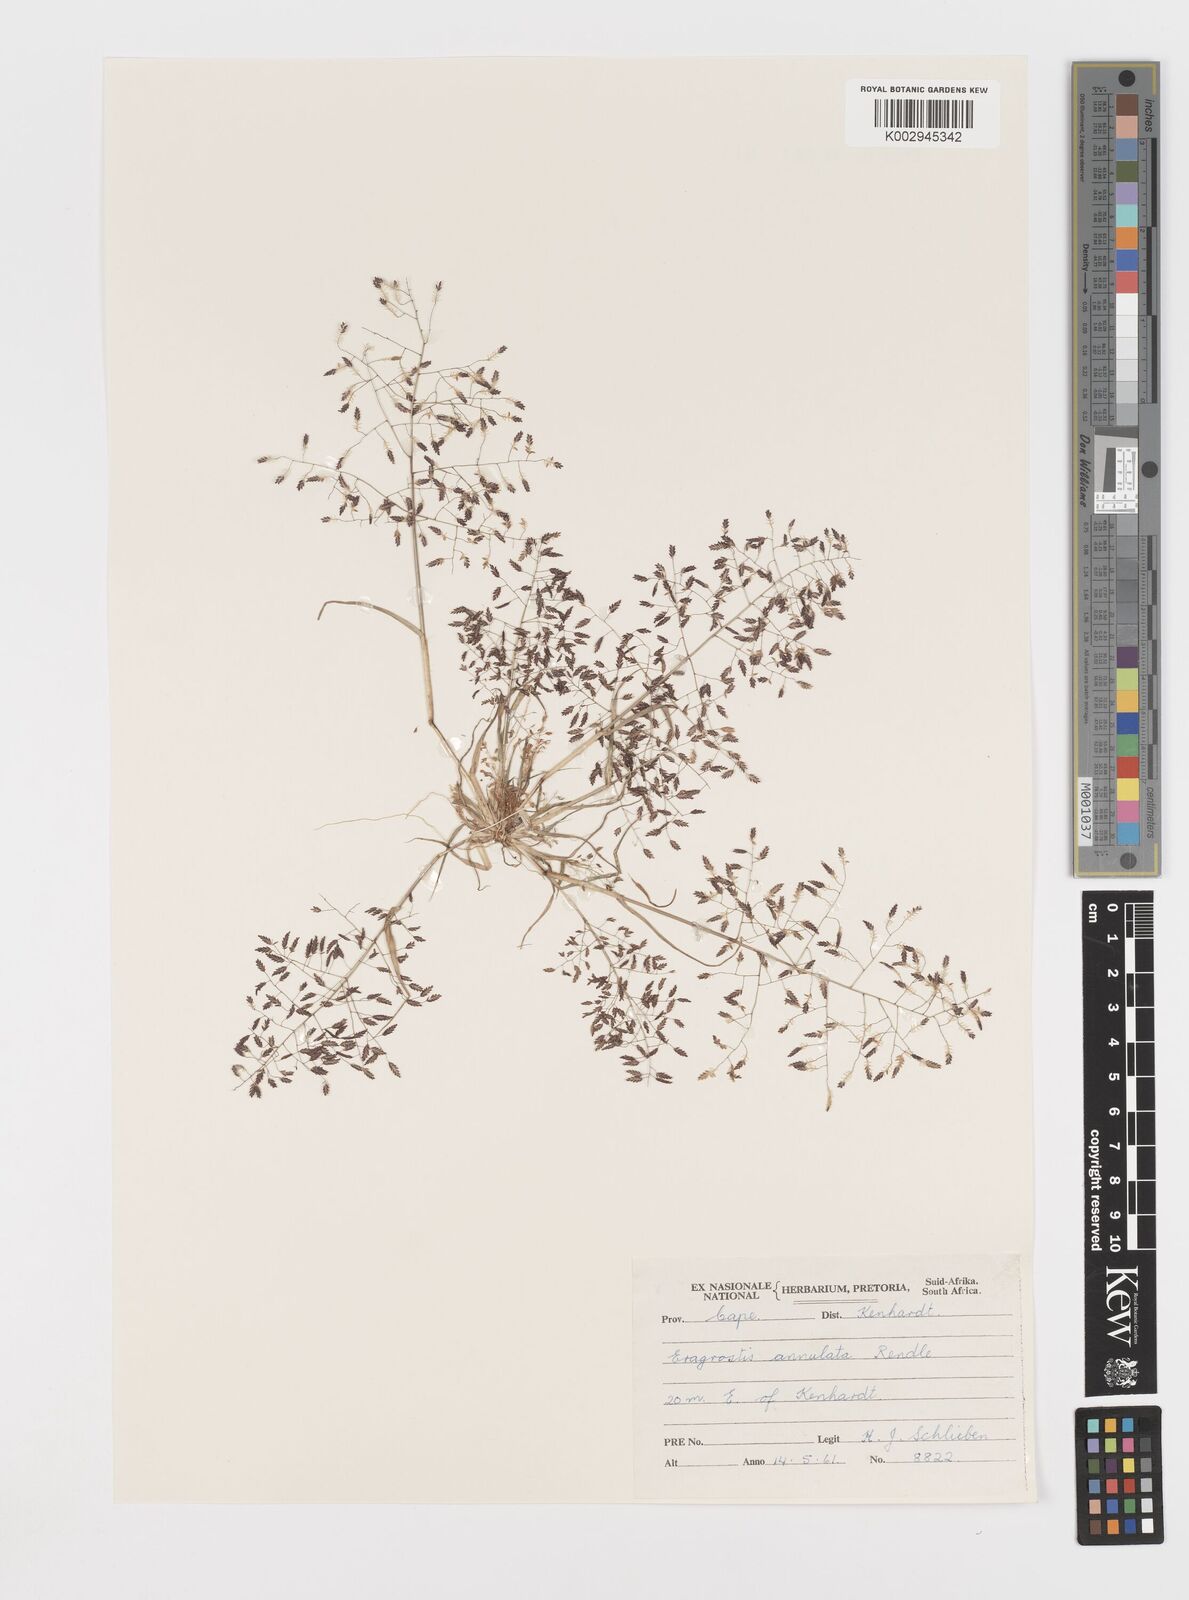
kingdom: Plantae
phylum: Tracheophyta
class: Liliopsida
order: Poales
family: Poaceae
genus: Eragrostis
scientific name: Eragrostis annulata
